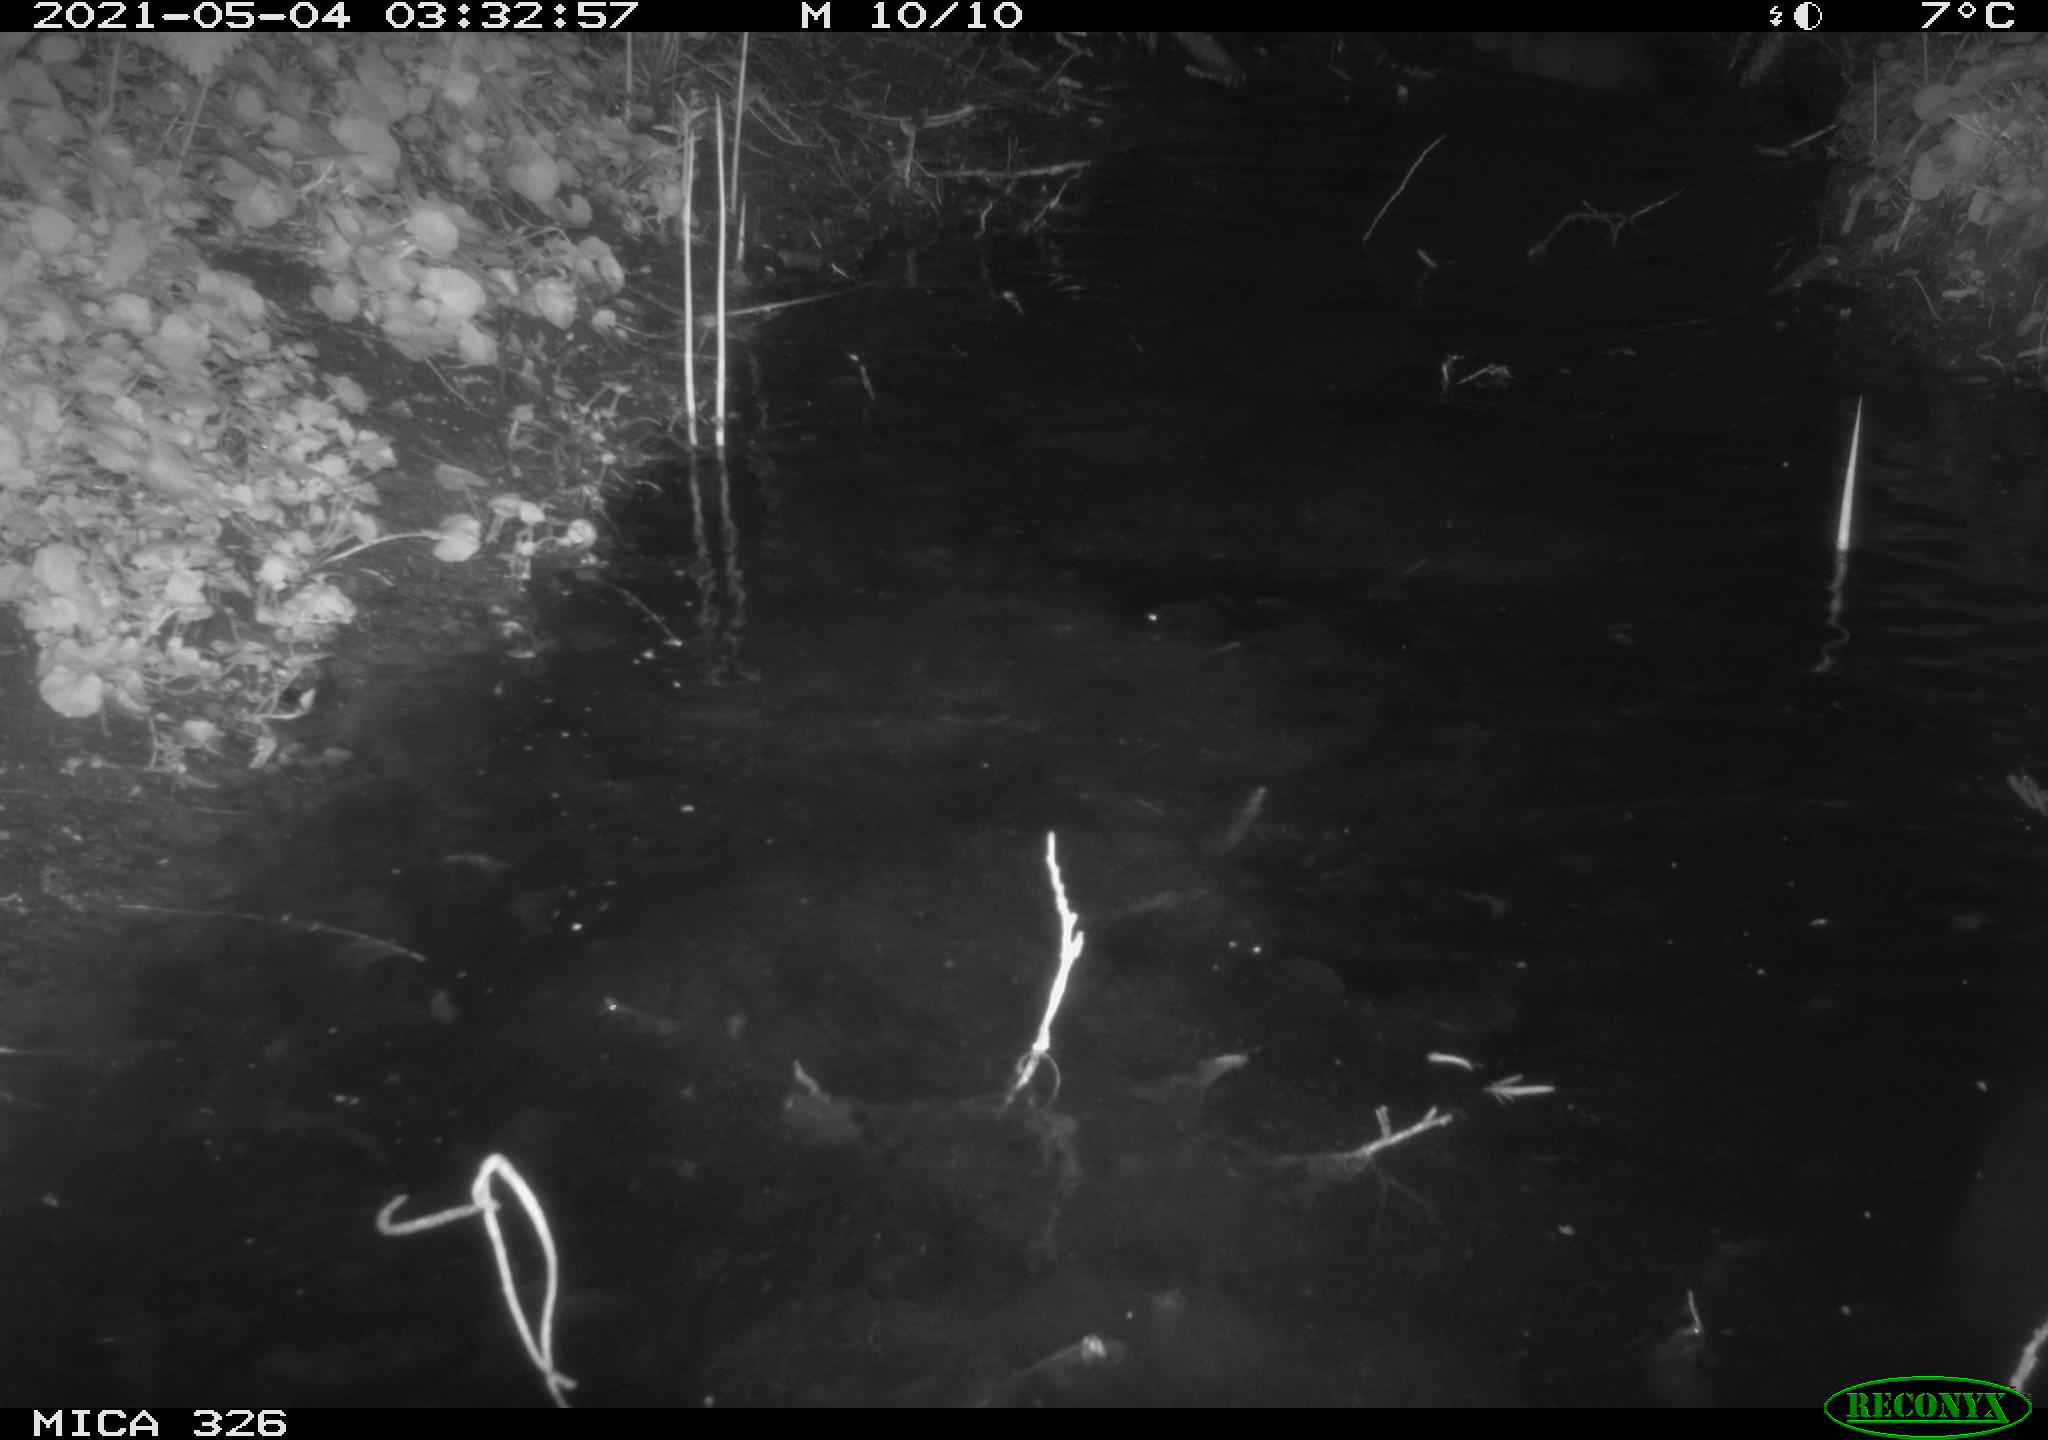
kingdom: Animalia
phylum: Chordata
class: Mammalia
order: Rodentia
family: Myocastoridae
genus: Myocastor
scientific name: Myocastor coypus
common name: Coypu
